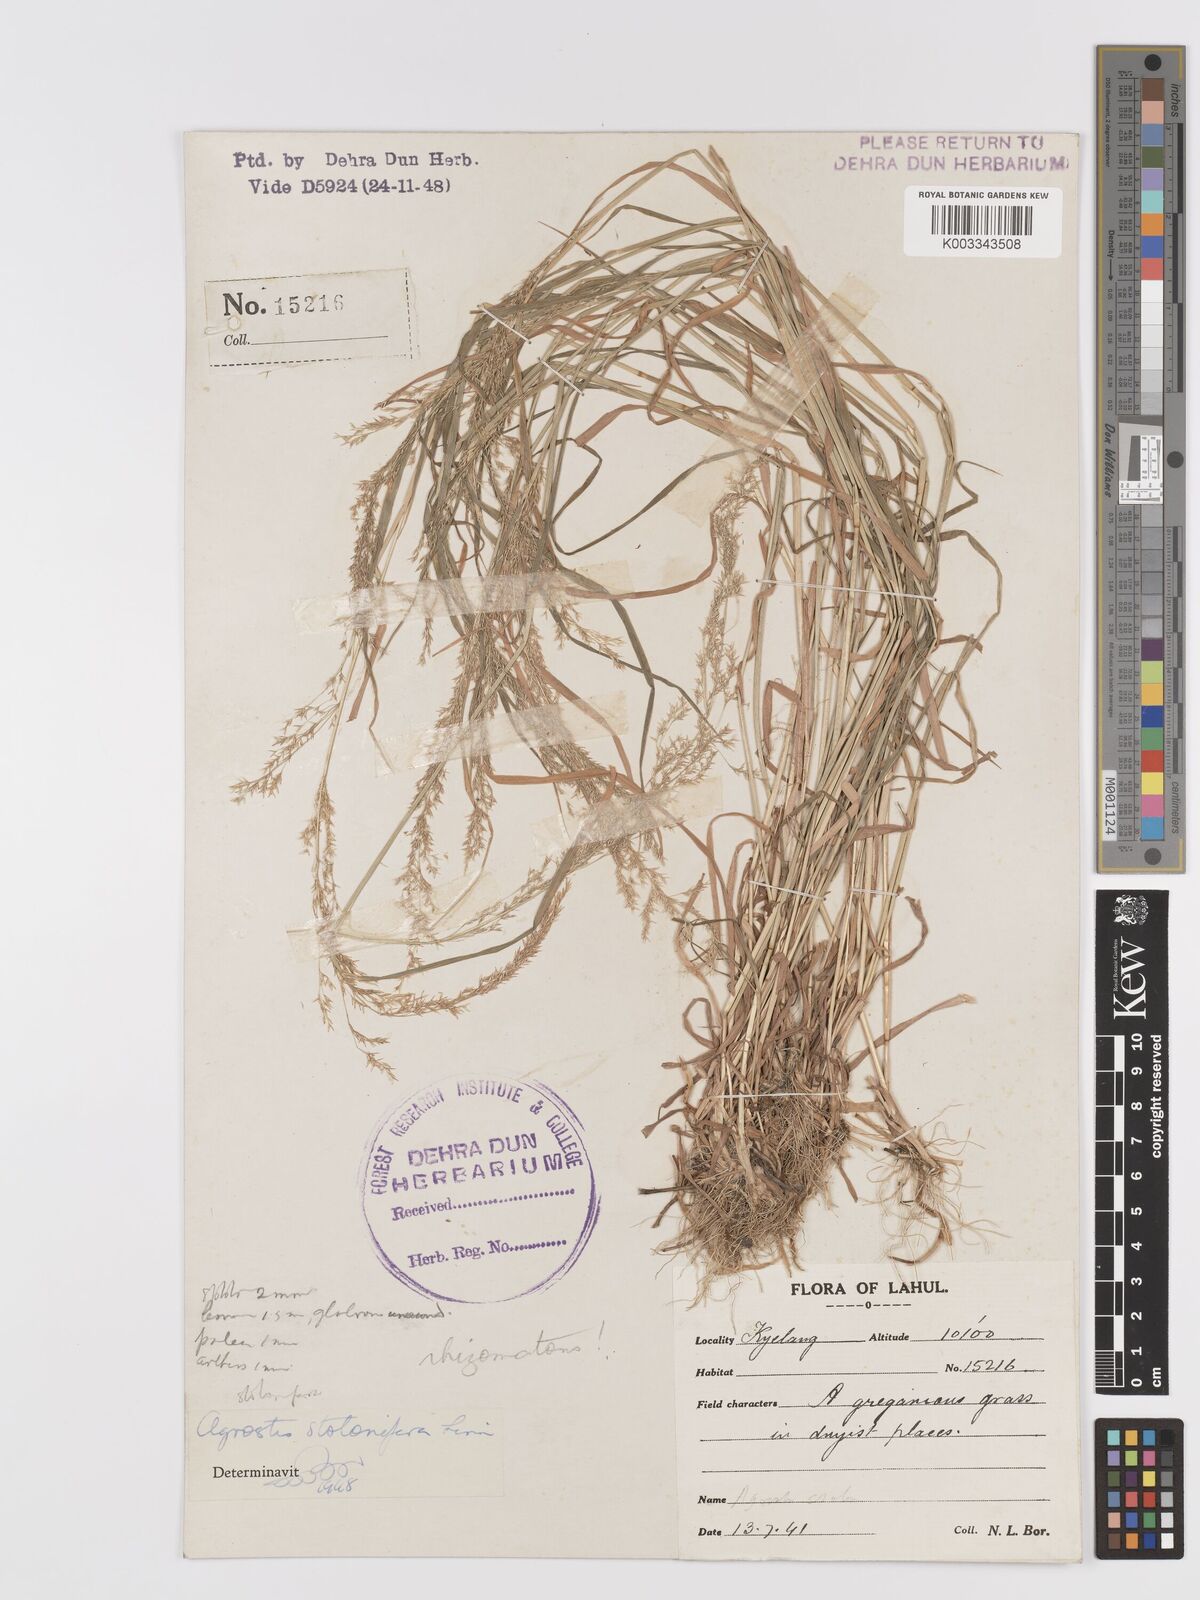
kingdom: Plantae
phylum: Tracheophyta
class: Liliopsida
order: Poales
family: Poaceae
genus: Agrostis
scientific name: Agrostis gigantea
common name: Black bent
